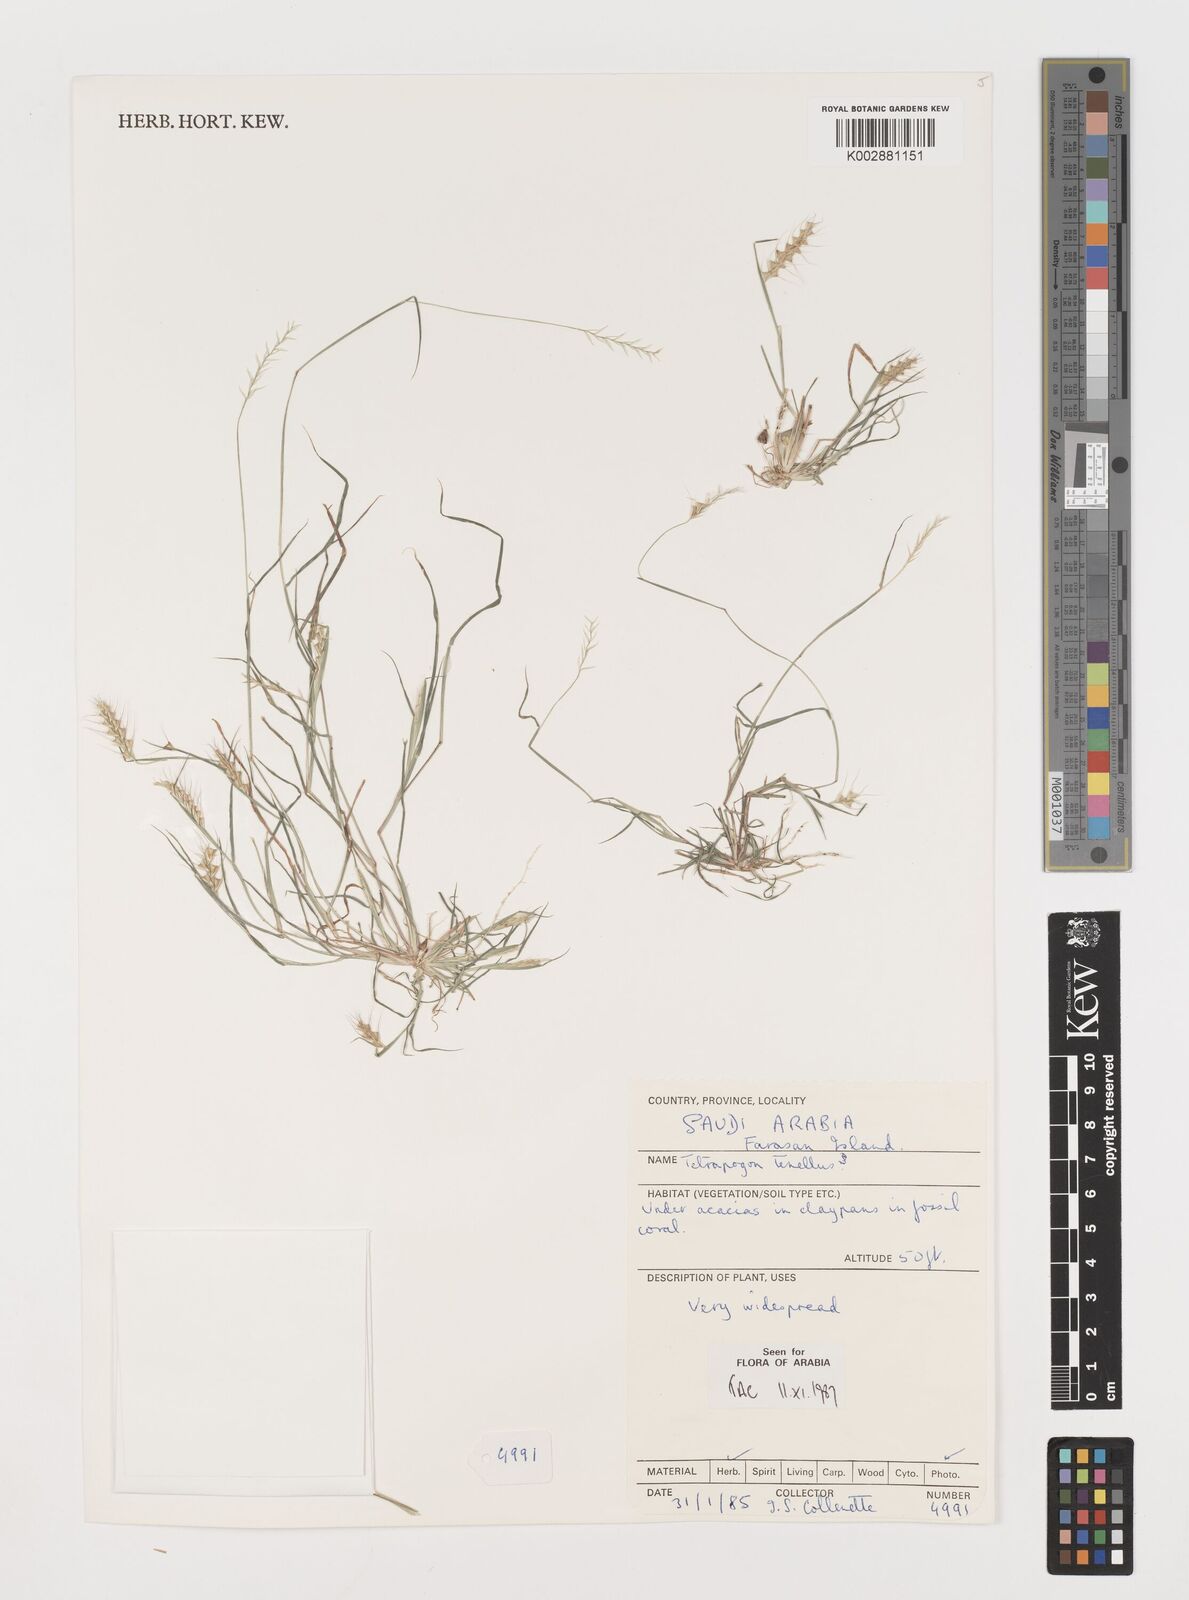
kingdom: Plantae
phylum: Tracheophyta
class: Liliopsida
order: Poales
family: Poaceae
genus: Tetrapogon
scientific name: Tetrapogon tenellus
